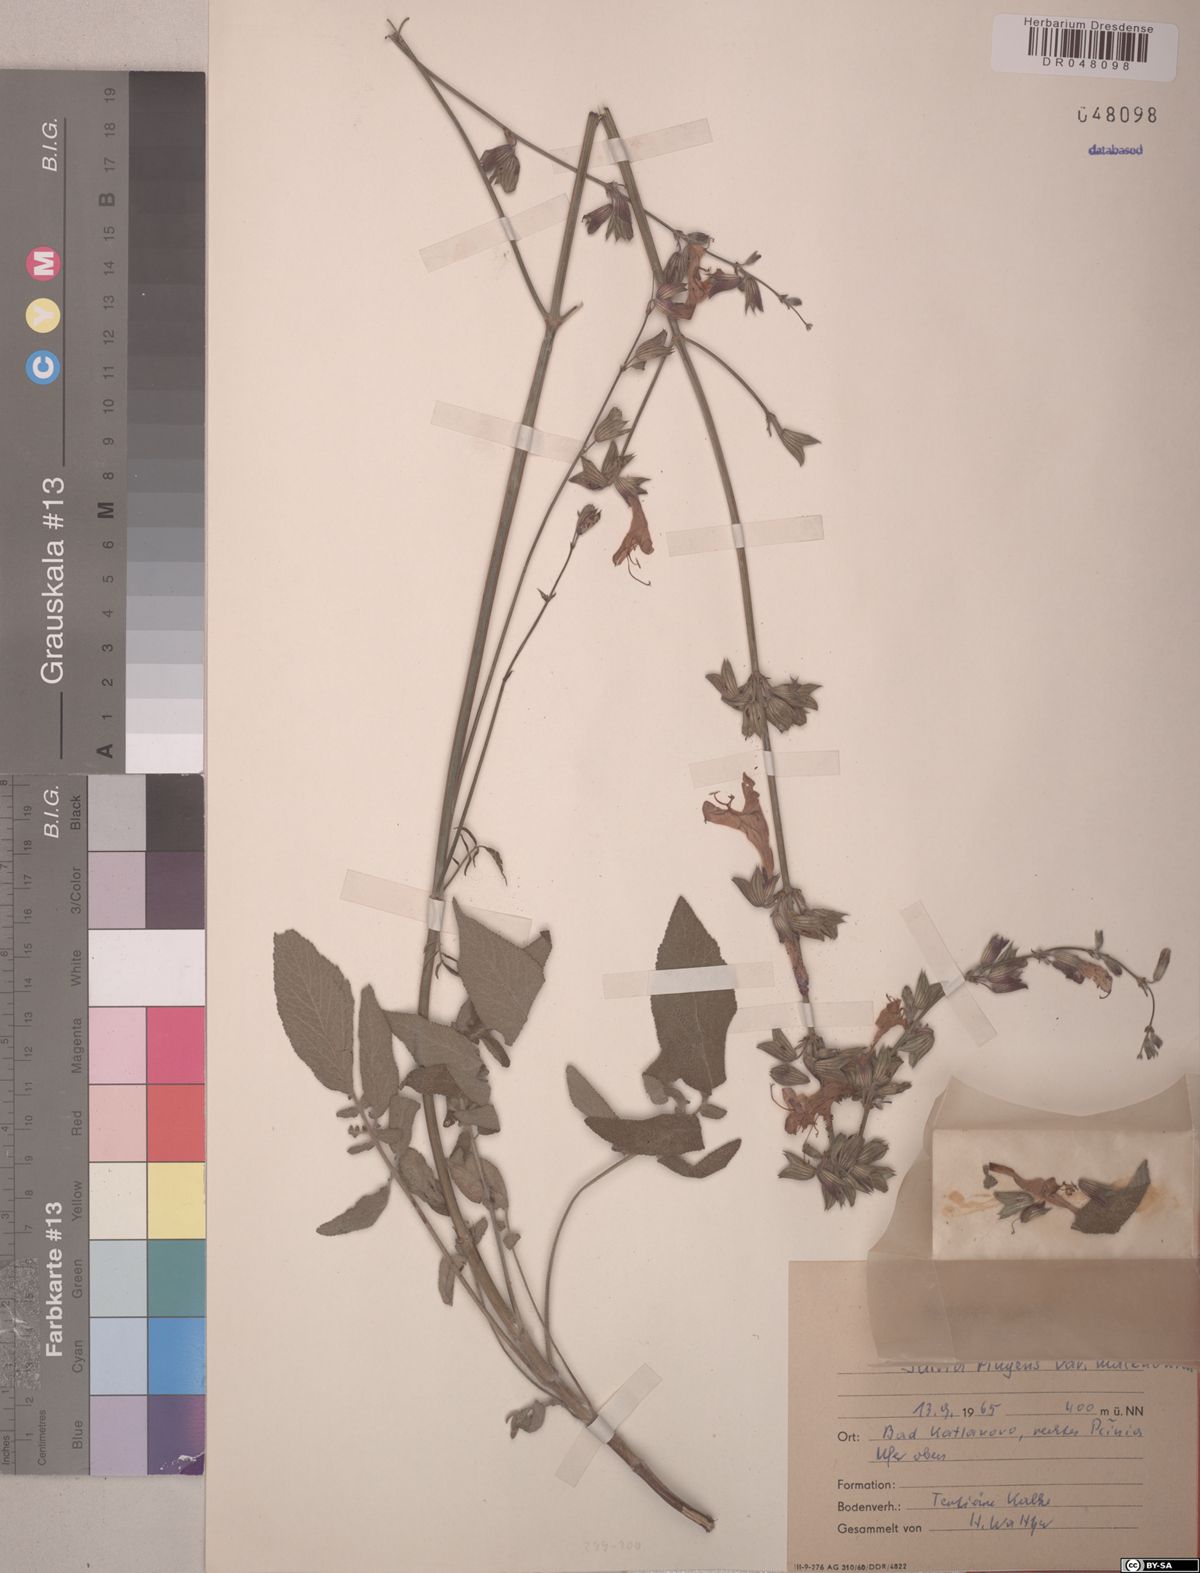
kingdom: Plantae
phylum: Tracheophyta
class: Magnoliopsida
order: Lamiales
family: Lamiaceae
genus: Salvia
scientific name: Salvia ringens
